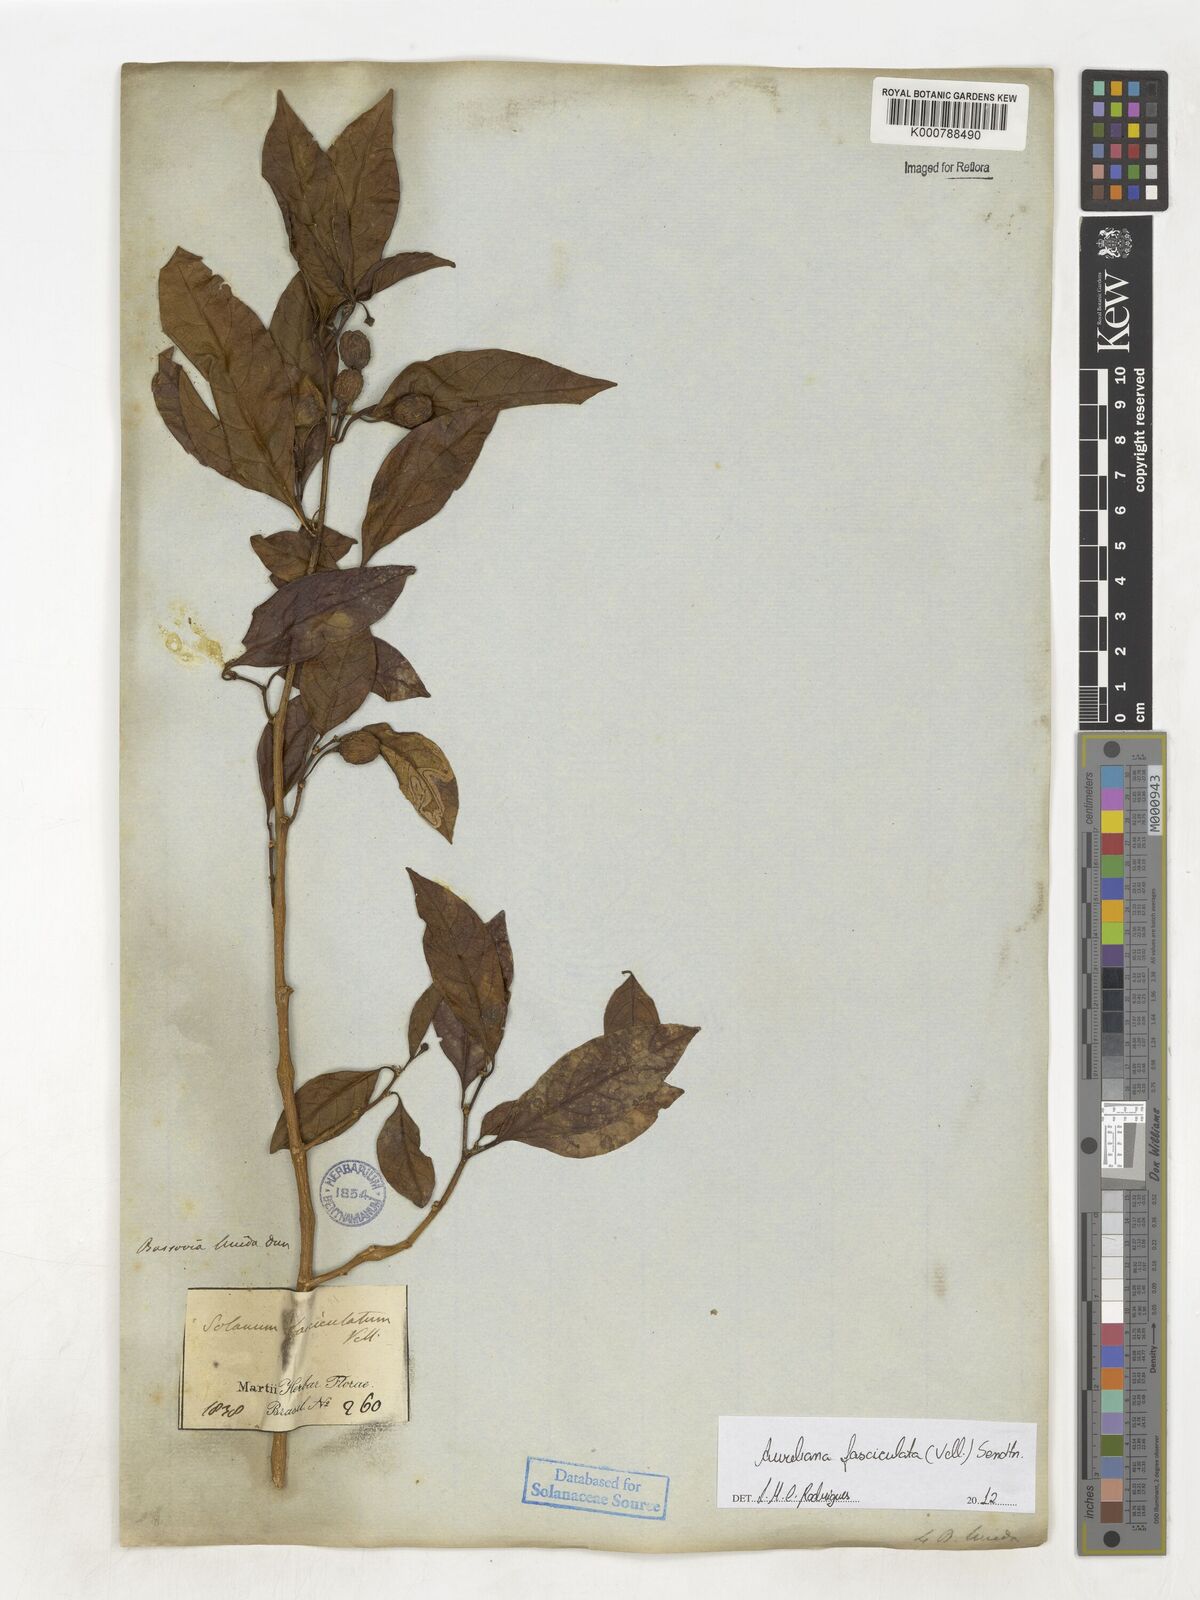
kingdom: Plantae
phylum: Tracheophyta
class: Magnoliopsida
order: Solanales
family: Solanaceae
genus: Athenaea
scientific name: Athenaea fasciculata
